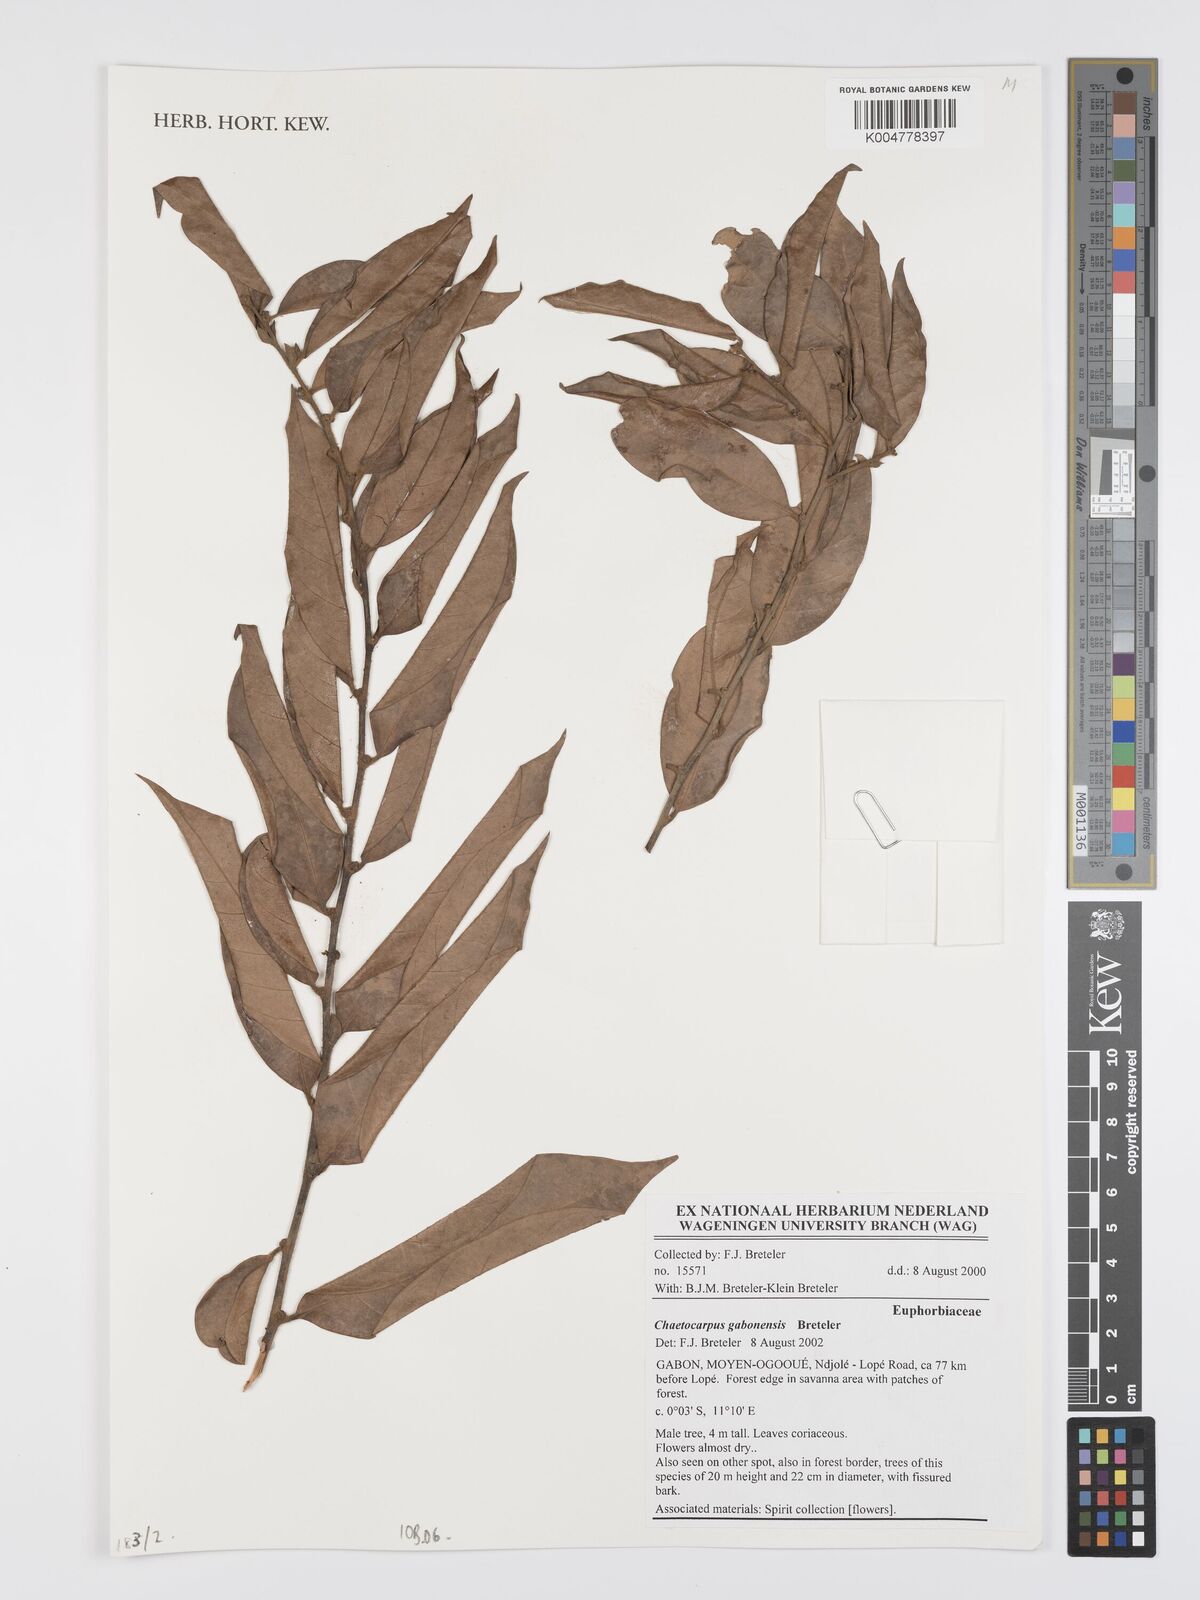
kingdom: Plantae
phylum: Tracheophyta
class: Magnoliopsida
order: Malpighiales
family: Peraceae
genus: Chaetocarpus
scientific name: Chaetocarpus gabonensis
